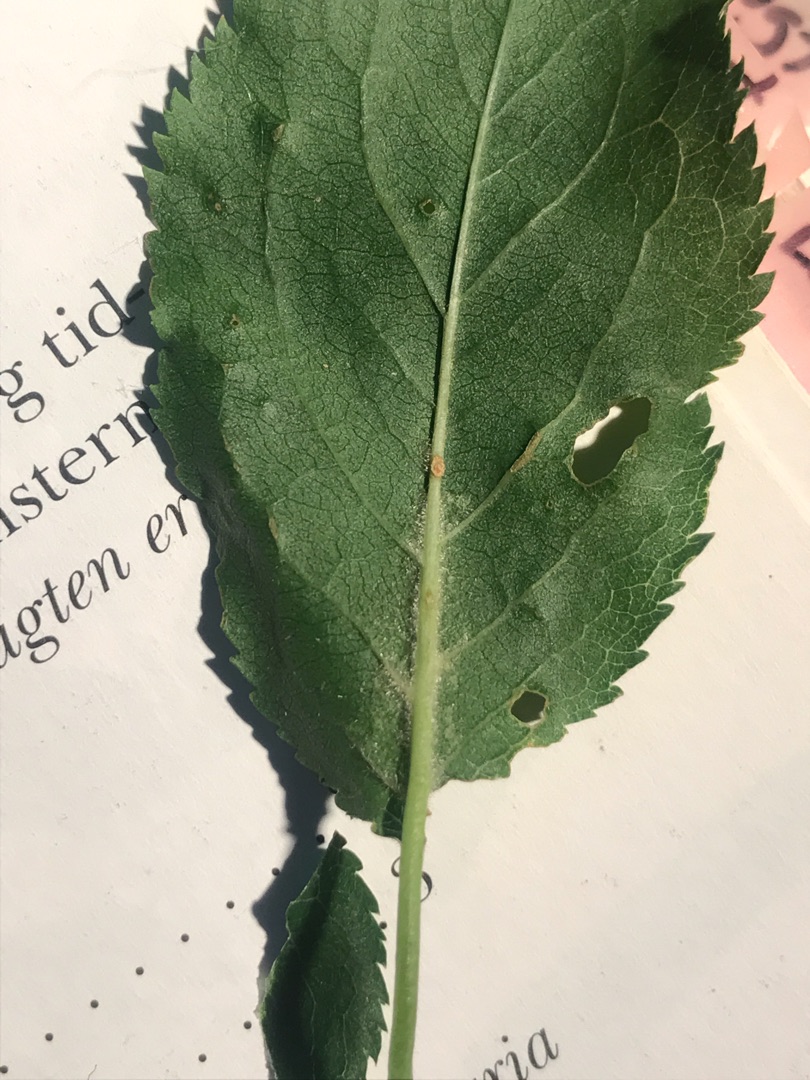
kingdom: Plantae
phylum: Tracheophyta
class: Magnoliopsida
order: Rosales
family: Rosaceae
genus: Prunus
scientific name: Prunus cerasifera
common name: Mirabel
